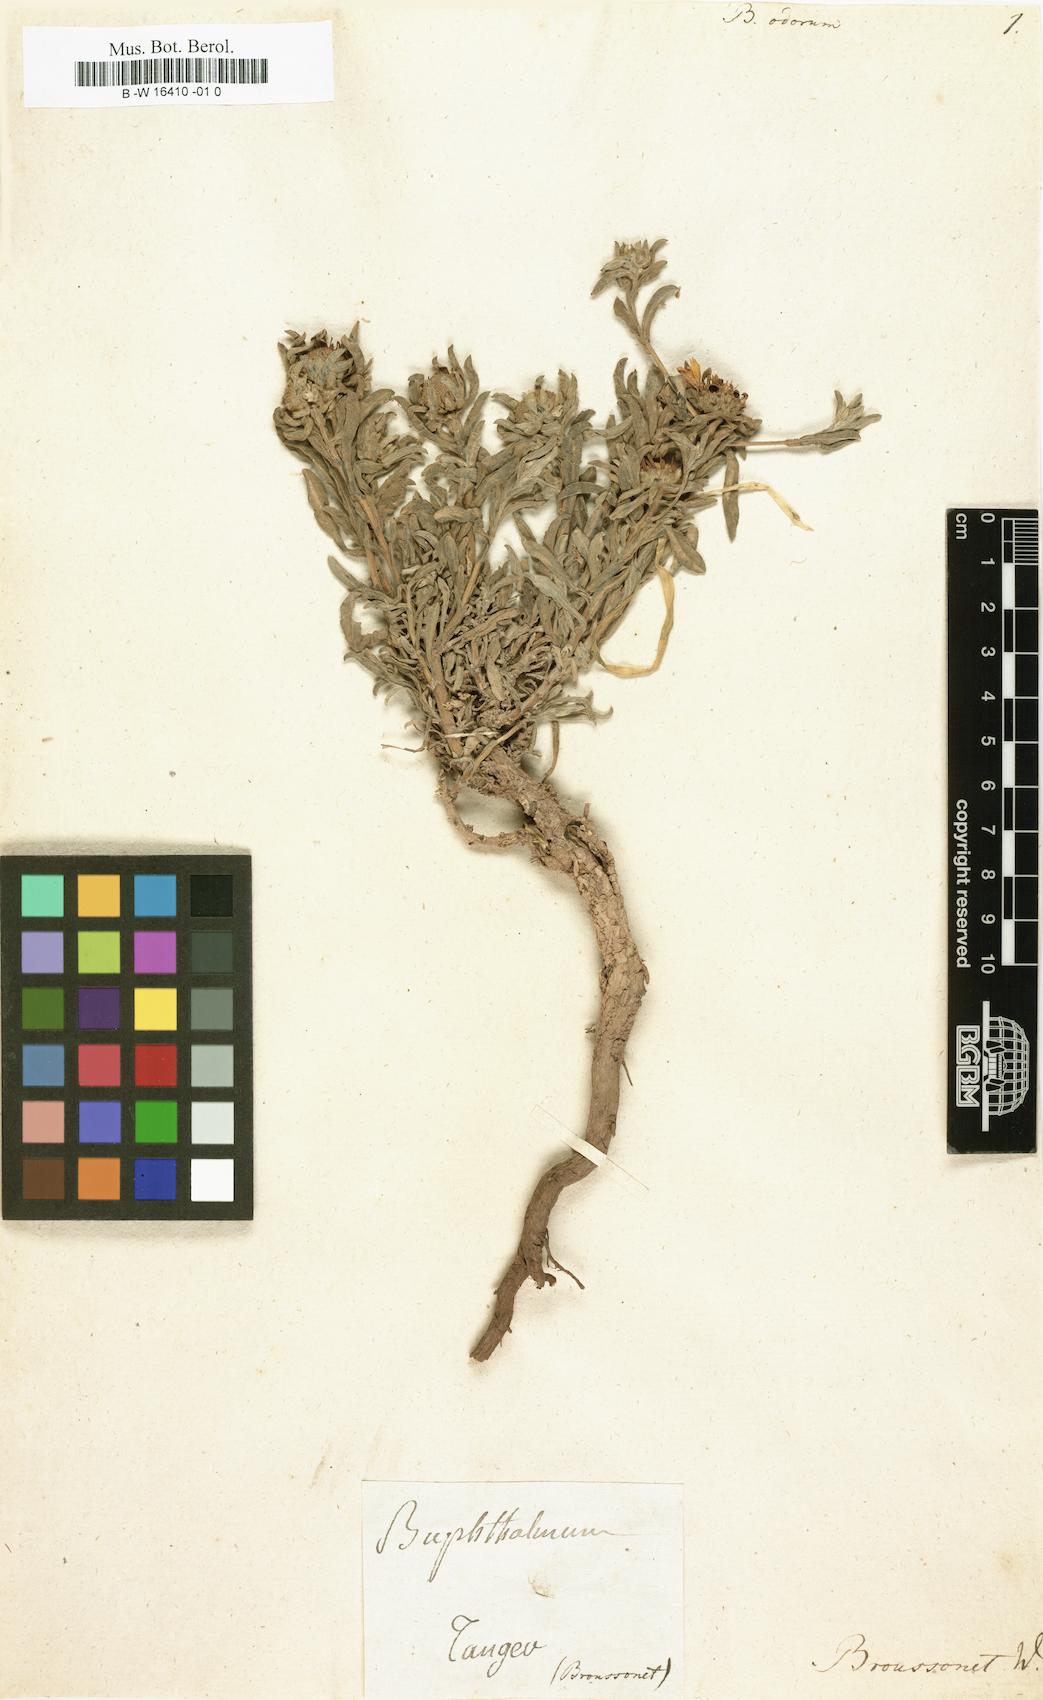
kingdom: Plantae
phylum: Tracheophyta
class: Magnoliopsida
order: Asterales
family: Asteraceae
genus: Asteriscus
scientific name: Asteriscus graveolens
